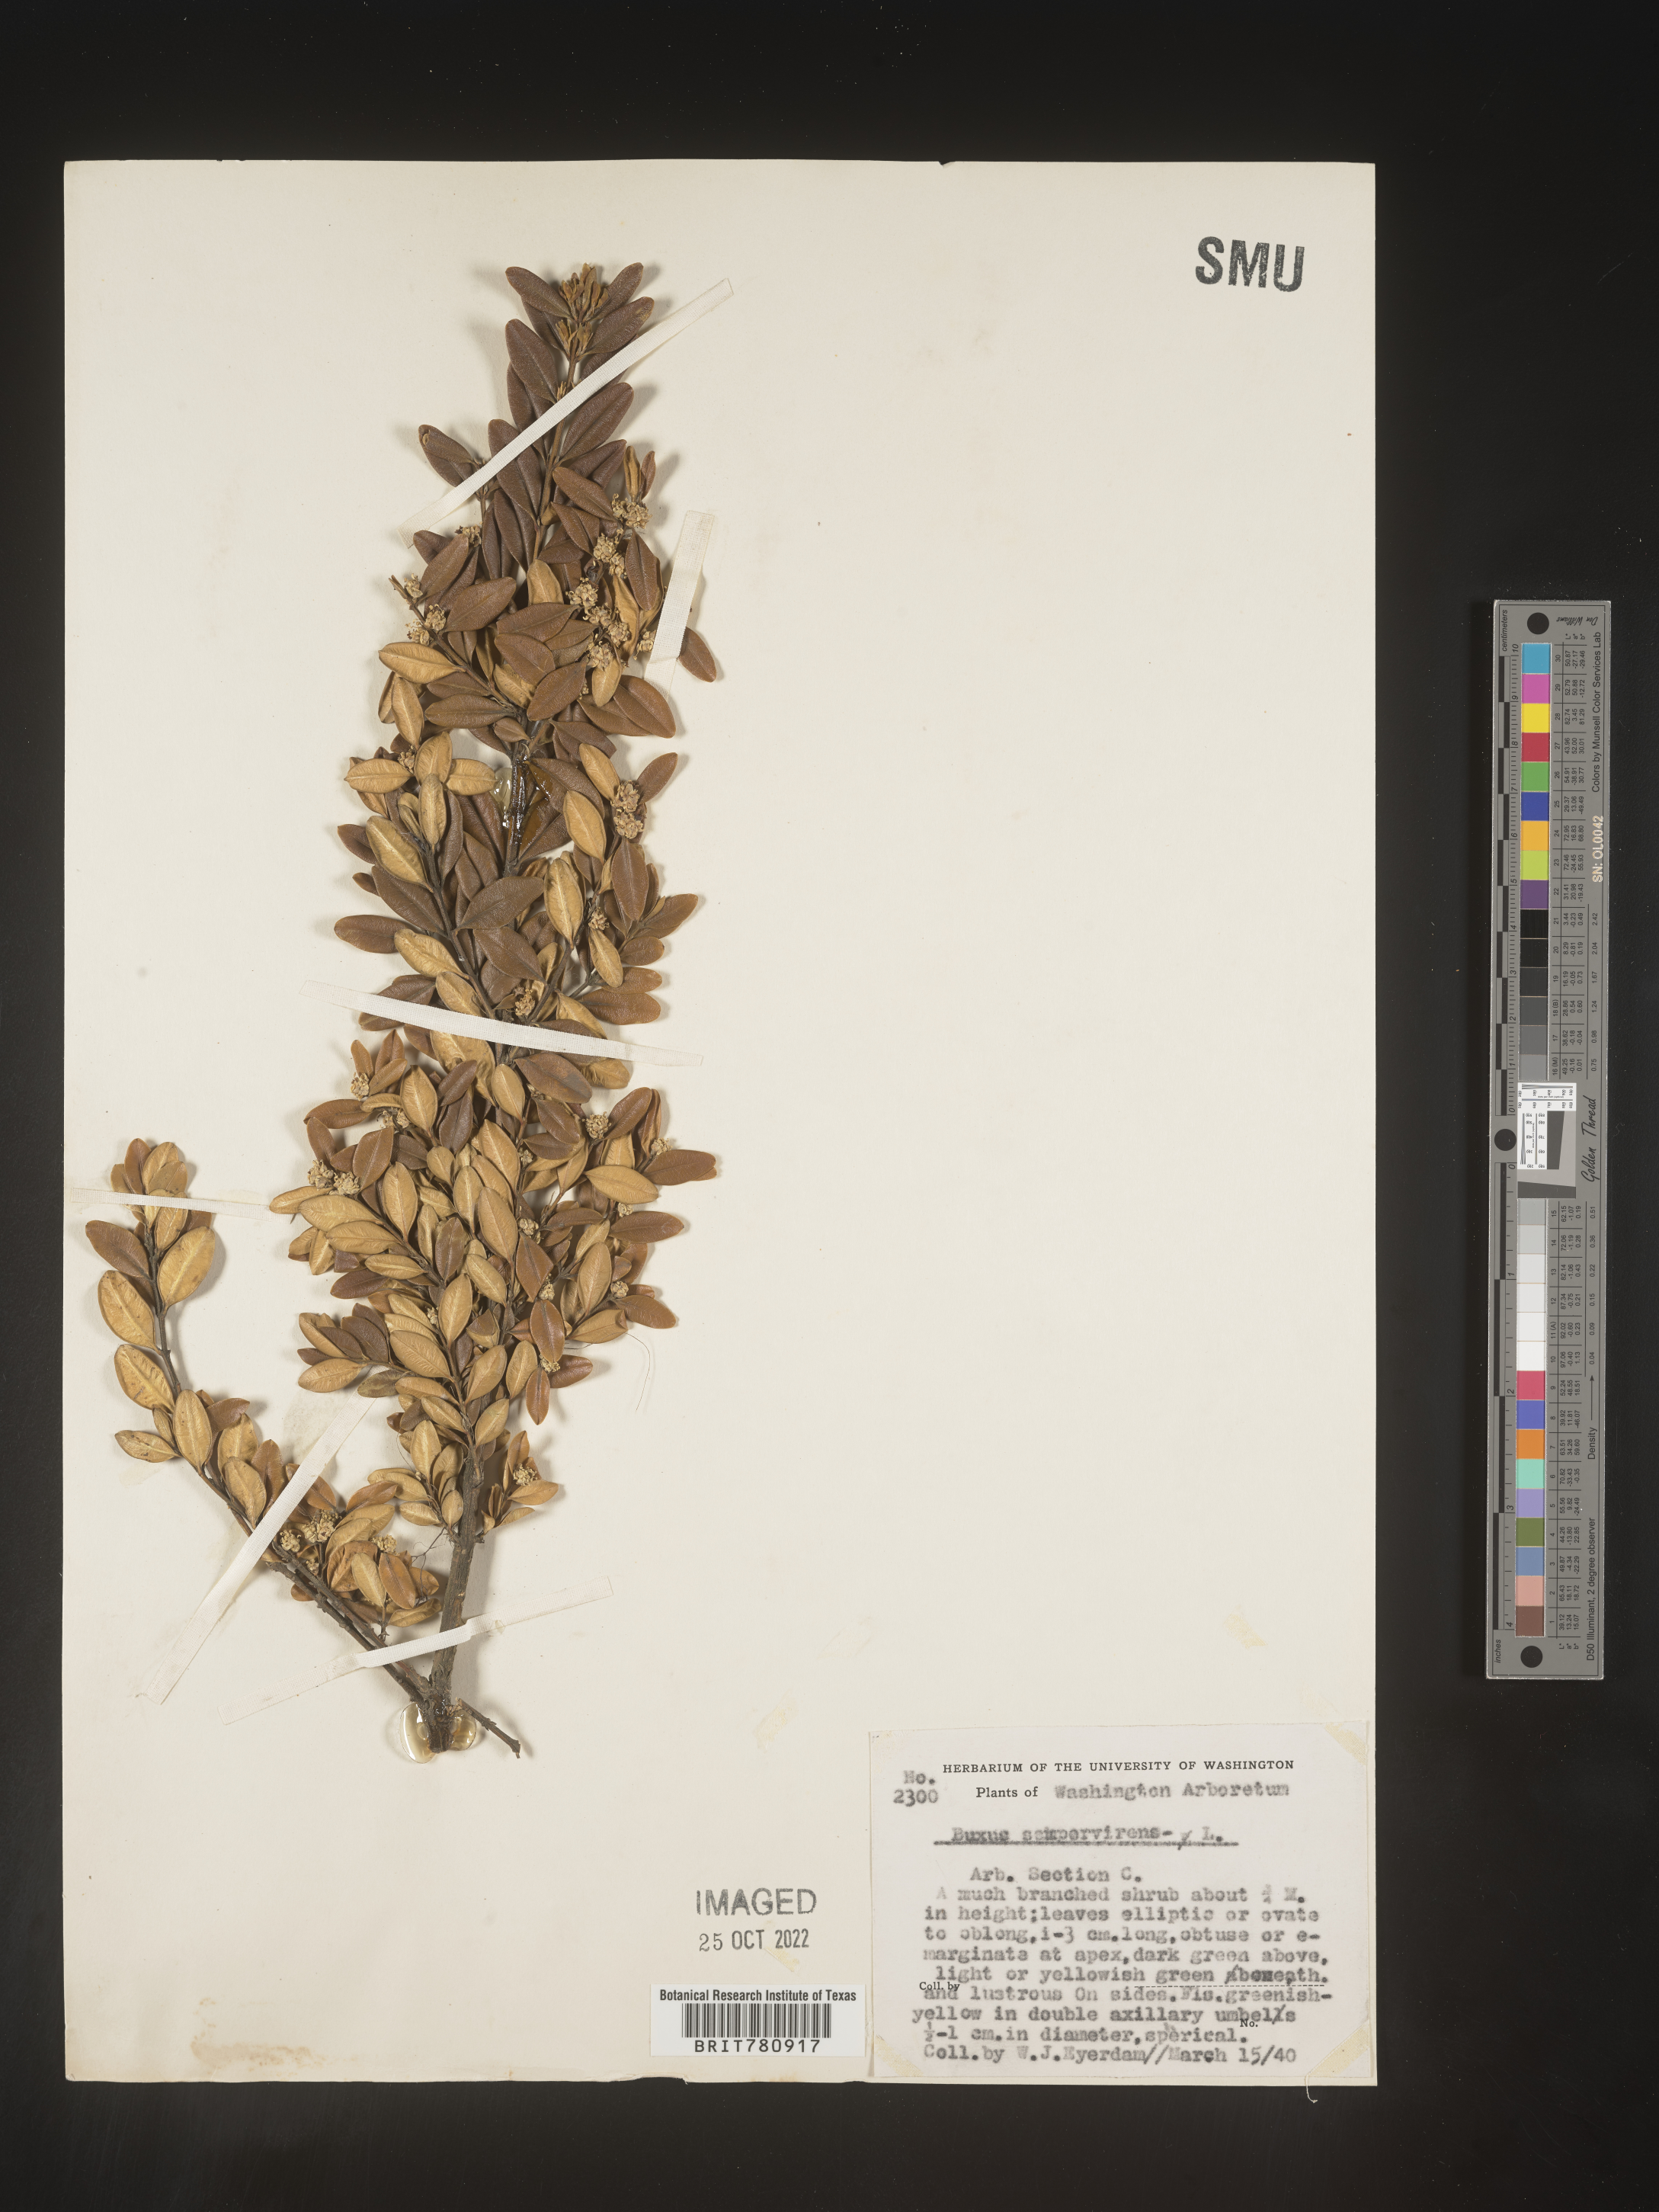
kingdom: Plantae
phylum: Tracheophyta
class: Magnoliopsida
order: Buxales
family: Buxaceae
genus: Buxus
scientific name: Buxus
